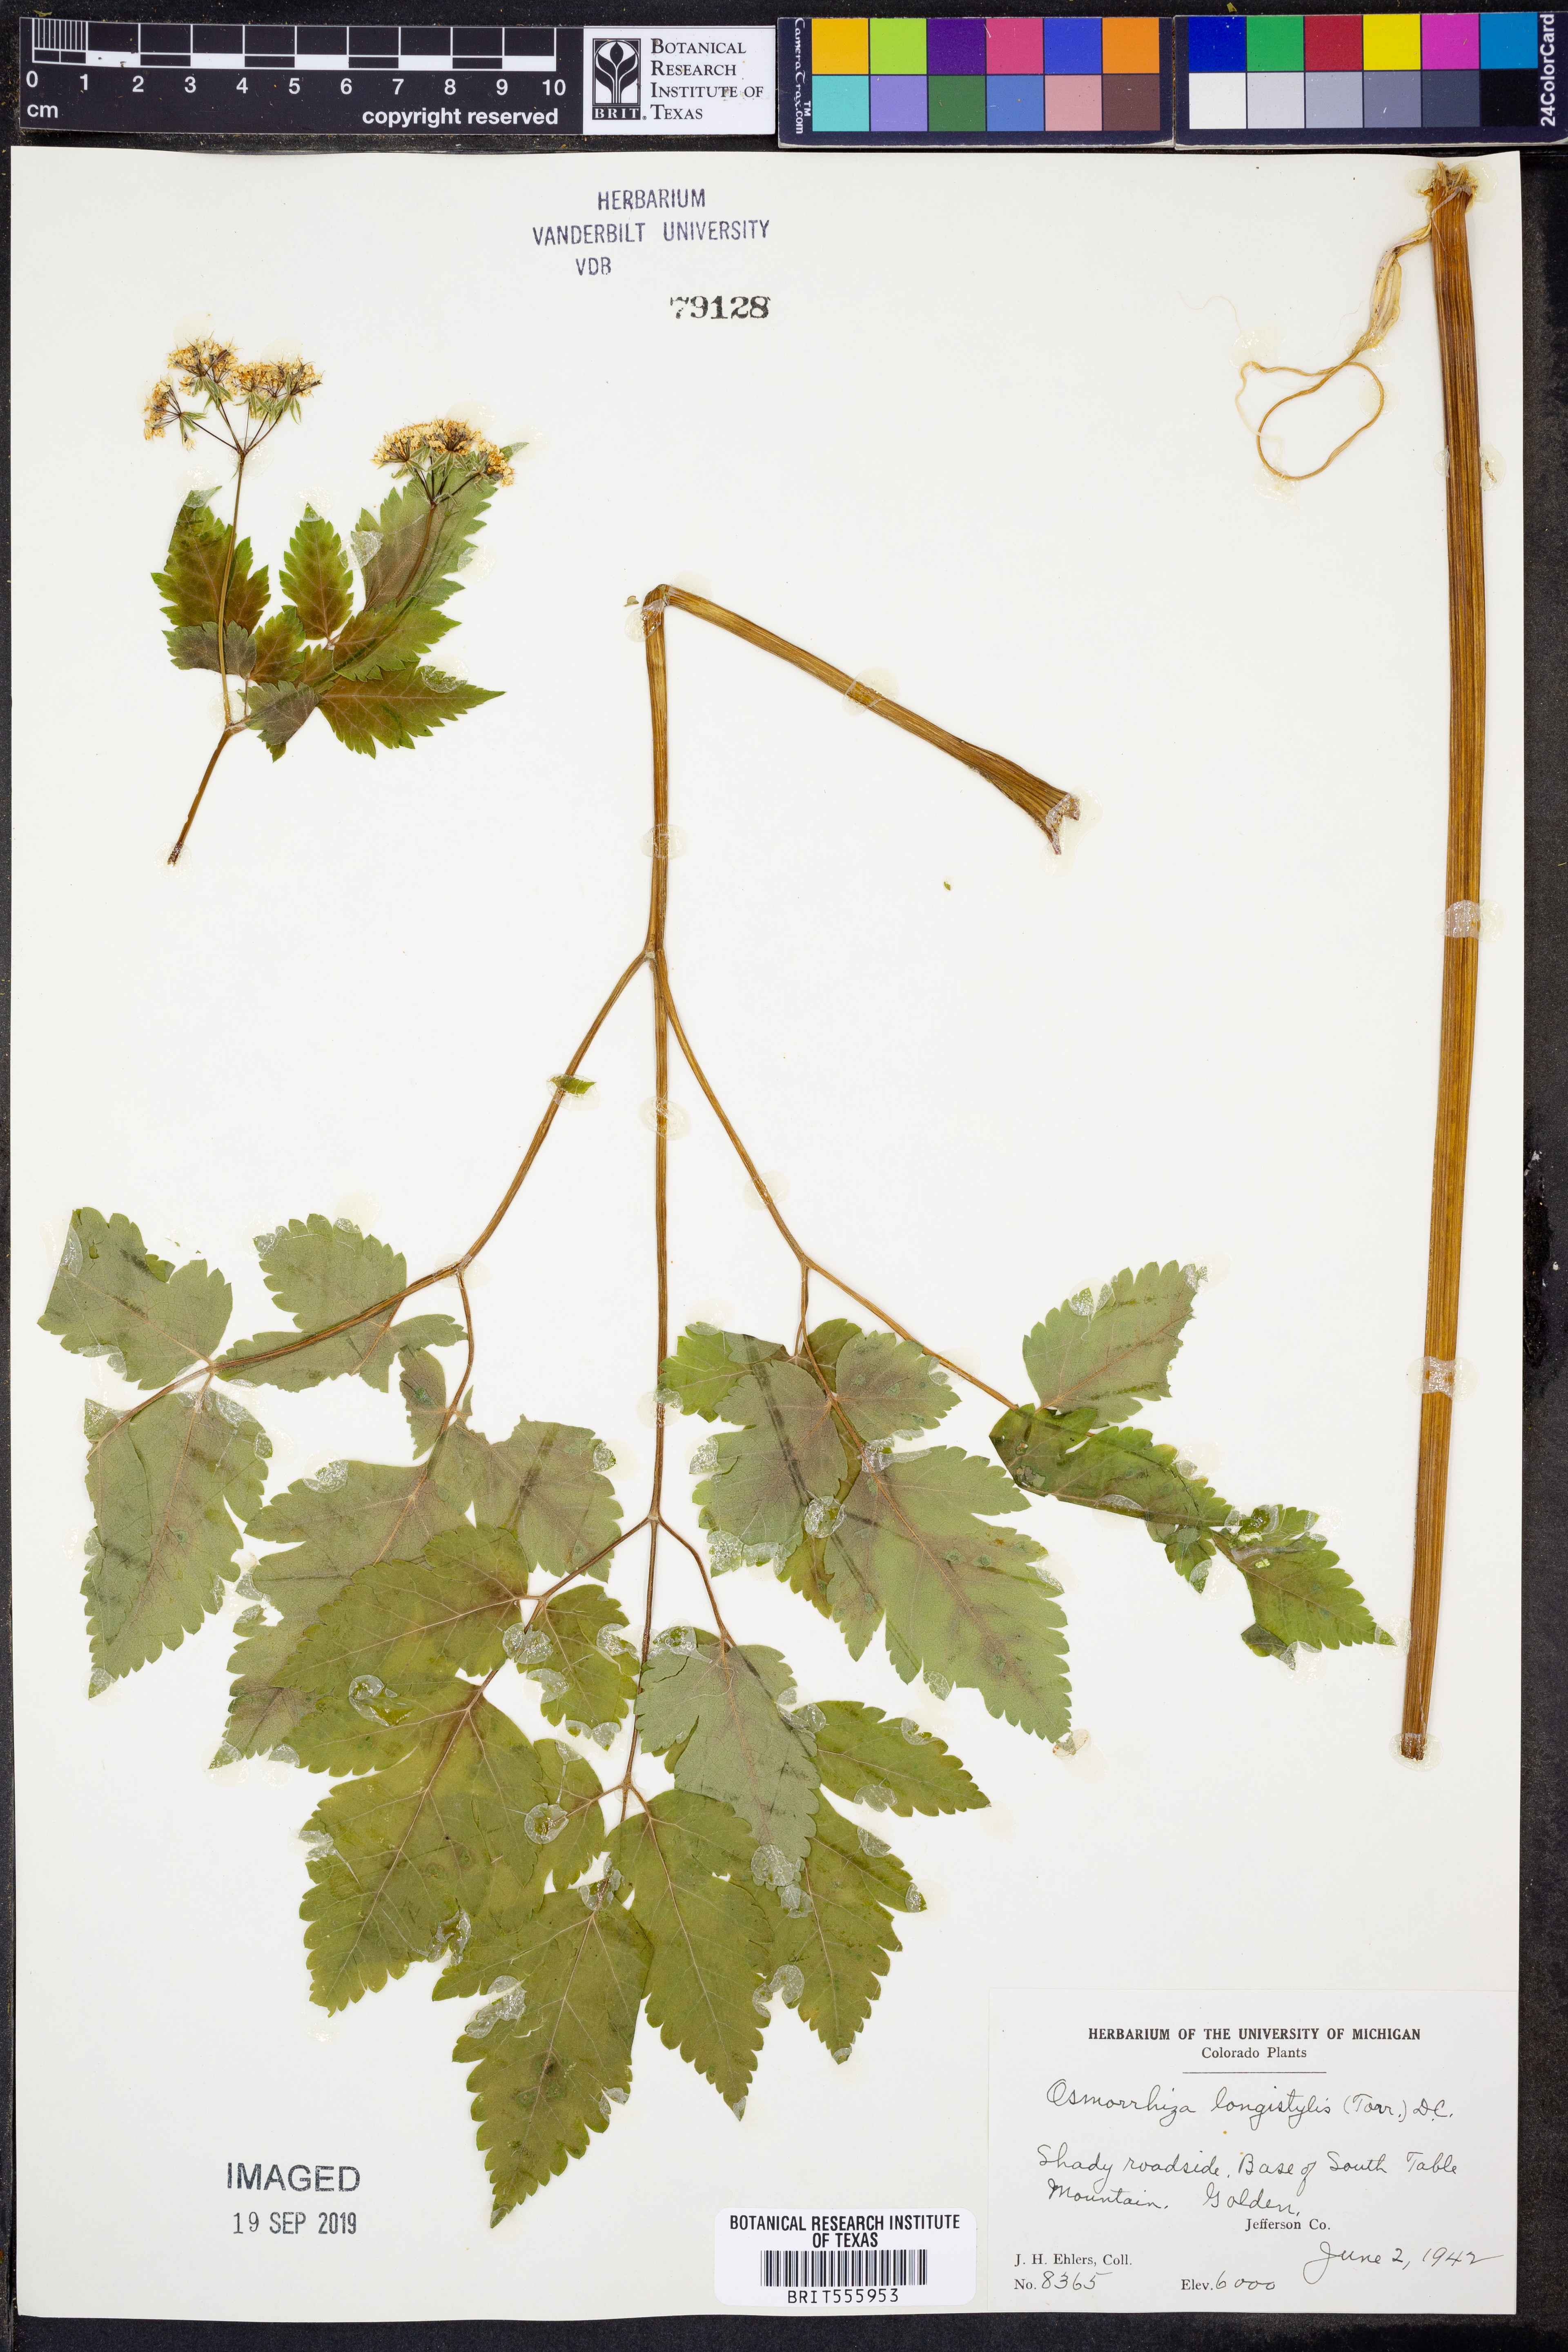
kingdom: Plantae
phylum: Tracheophyta
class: Magnoliopsida
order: Apiales
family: Apiaceae
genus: Osmorhiza
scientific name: Osmorhiza longistylis
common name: Smooth sweet cicely
